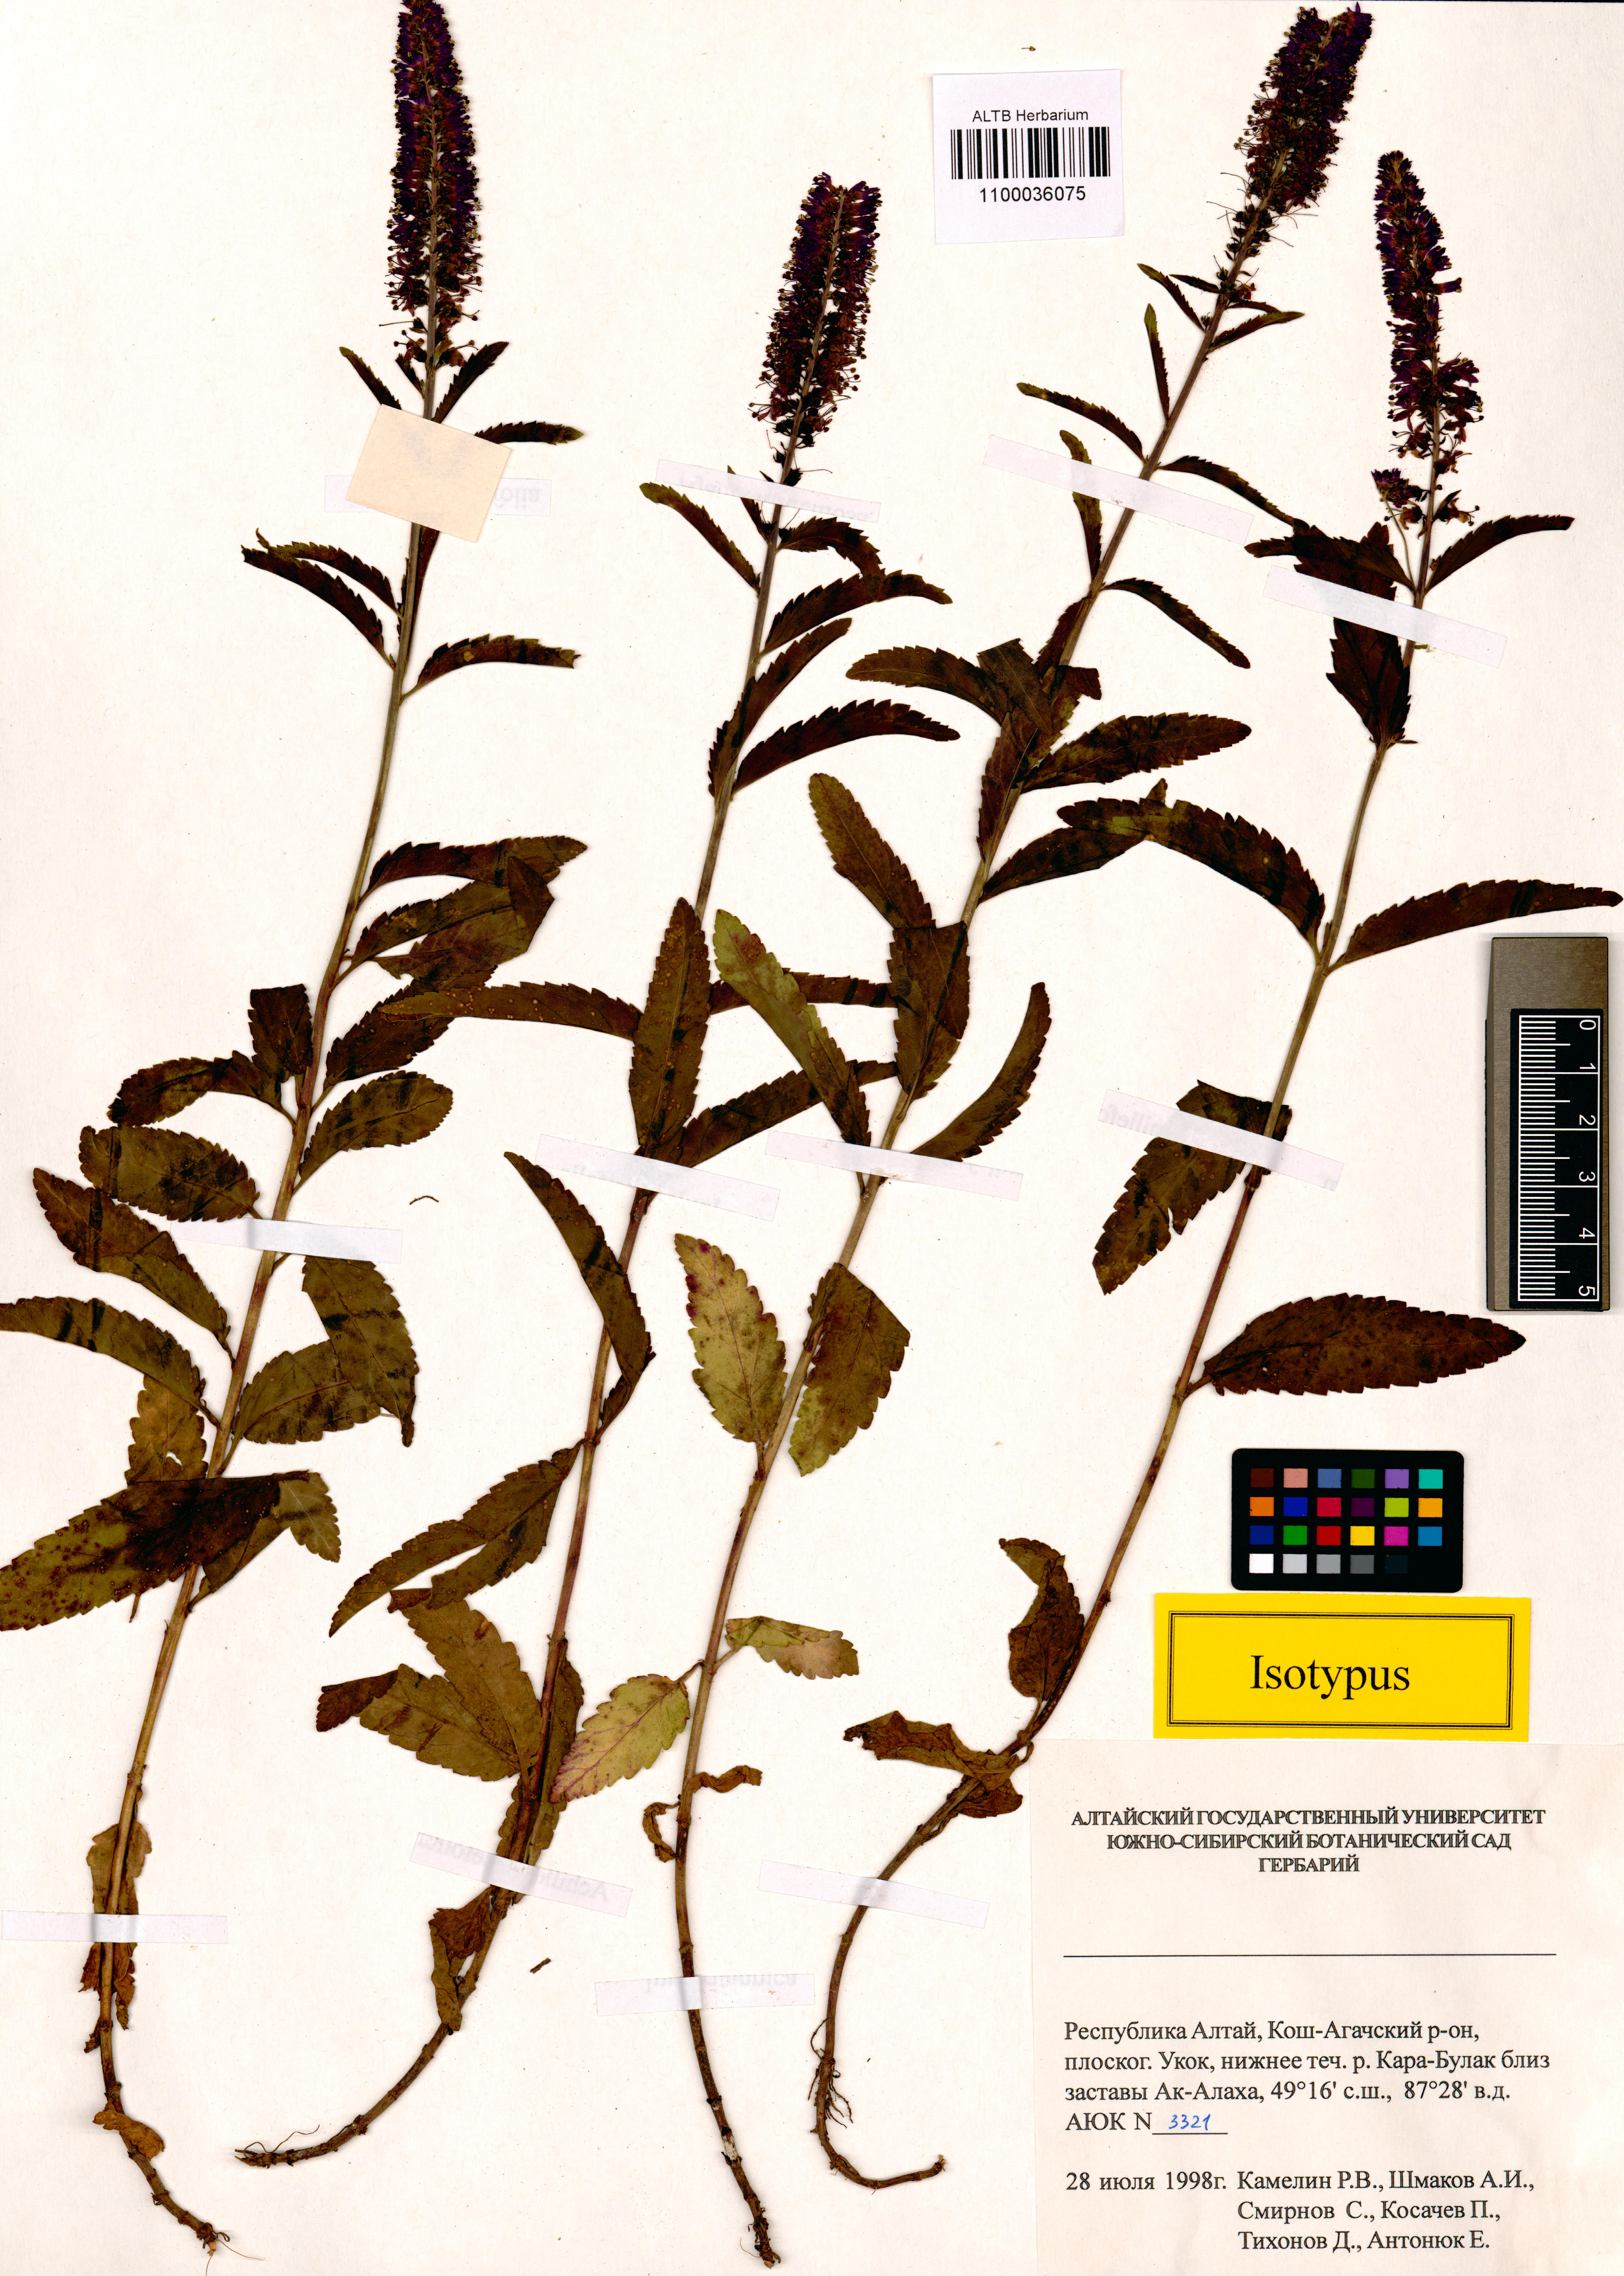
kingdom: Plantae
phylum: Tracheophyta
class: Magnoliopsida
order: Lamiales
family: Plantaginaceae
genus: Veronica
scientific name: Veronica schmakovii
